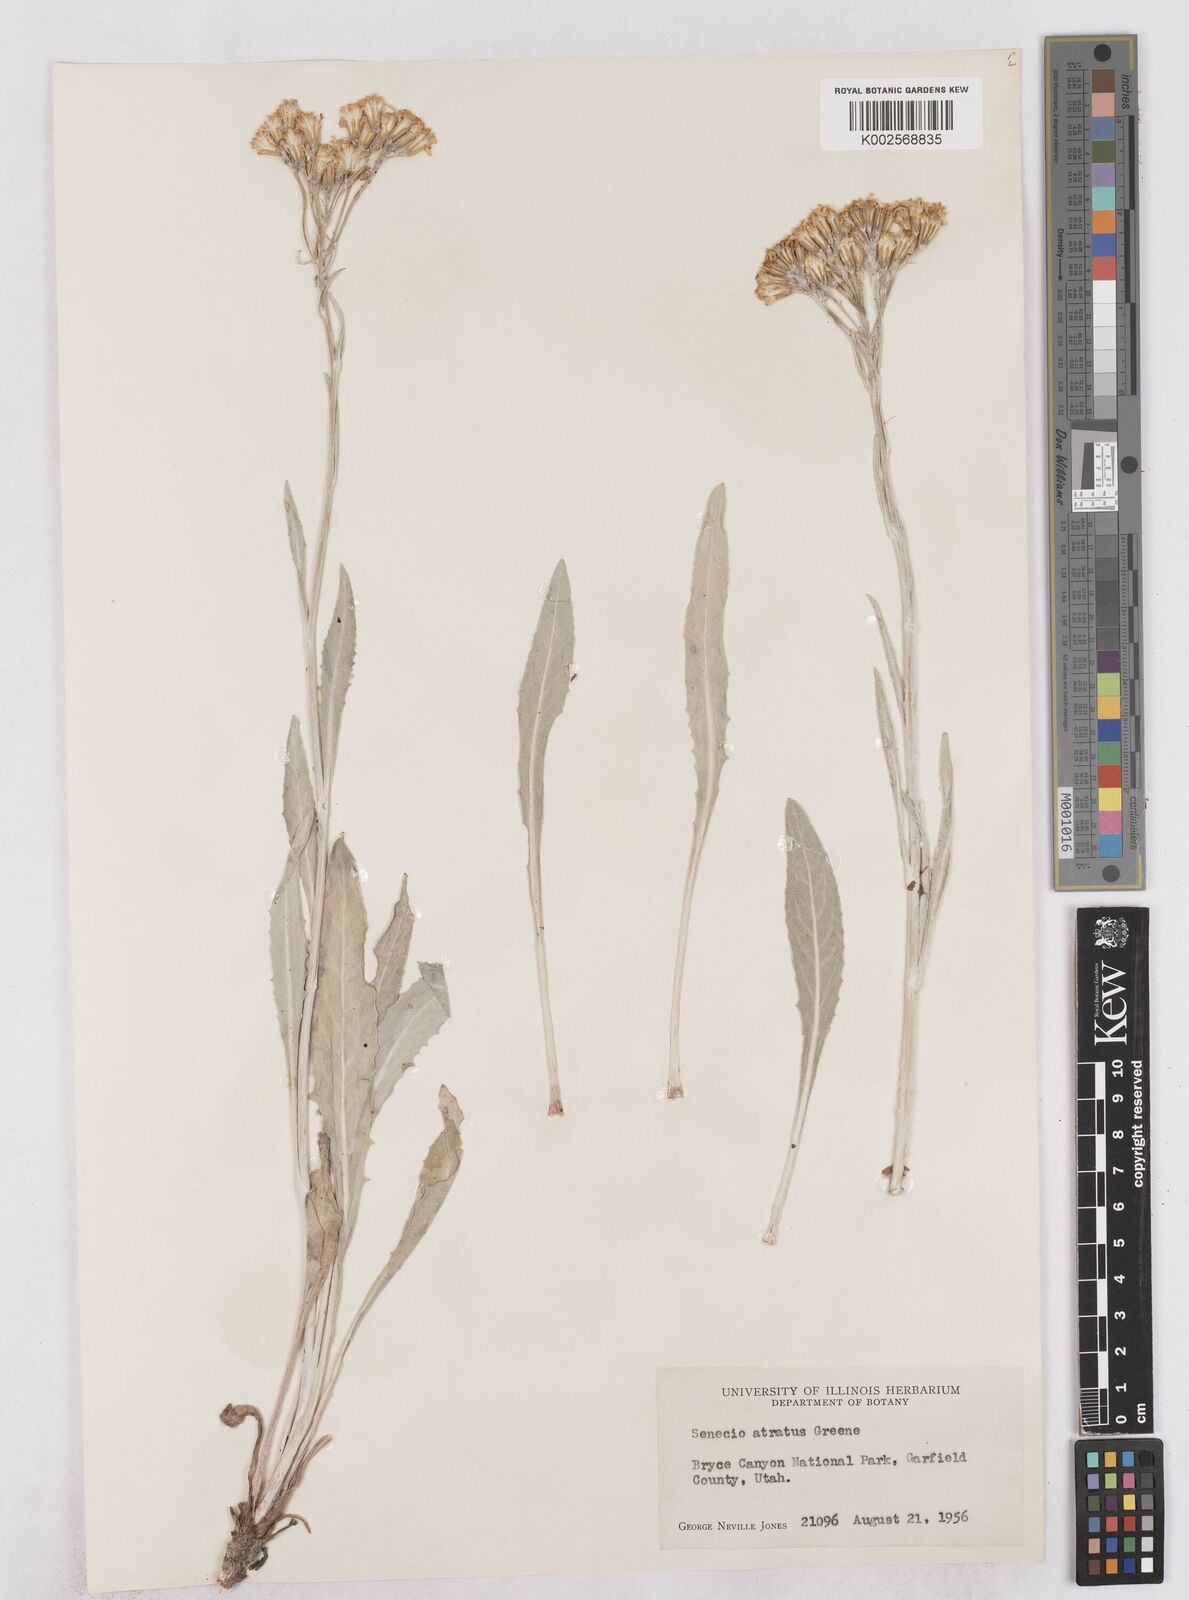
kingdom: Plantae
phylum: Tracheophyta
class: Magnoliopsida
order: Asterales
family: Asteraceae
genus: Senecio
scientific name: Senecio atratus
